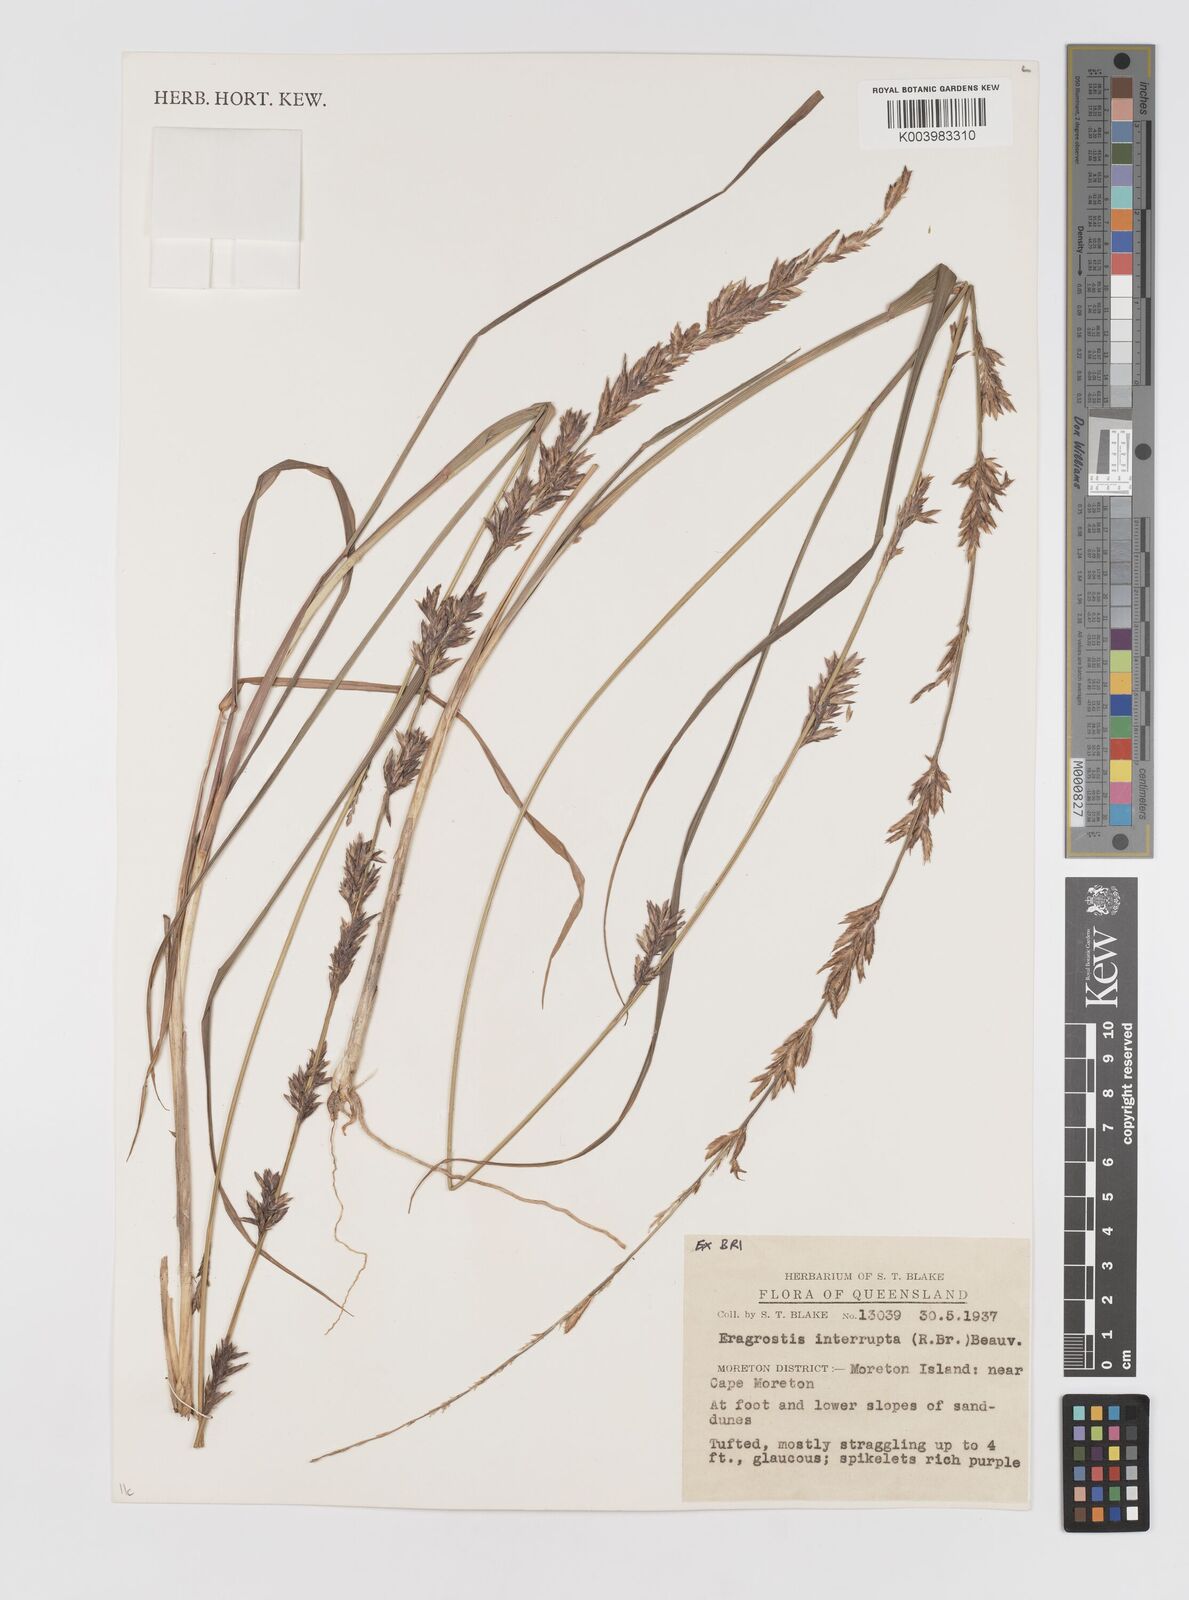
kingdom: Plantae
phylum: Tracheophyta
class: Liliopsida
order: Poales
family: Poaceae
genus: Eragrostis
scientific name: Eragrostis interrupta
